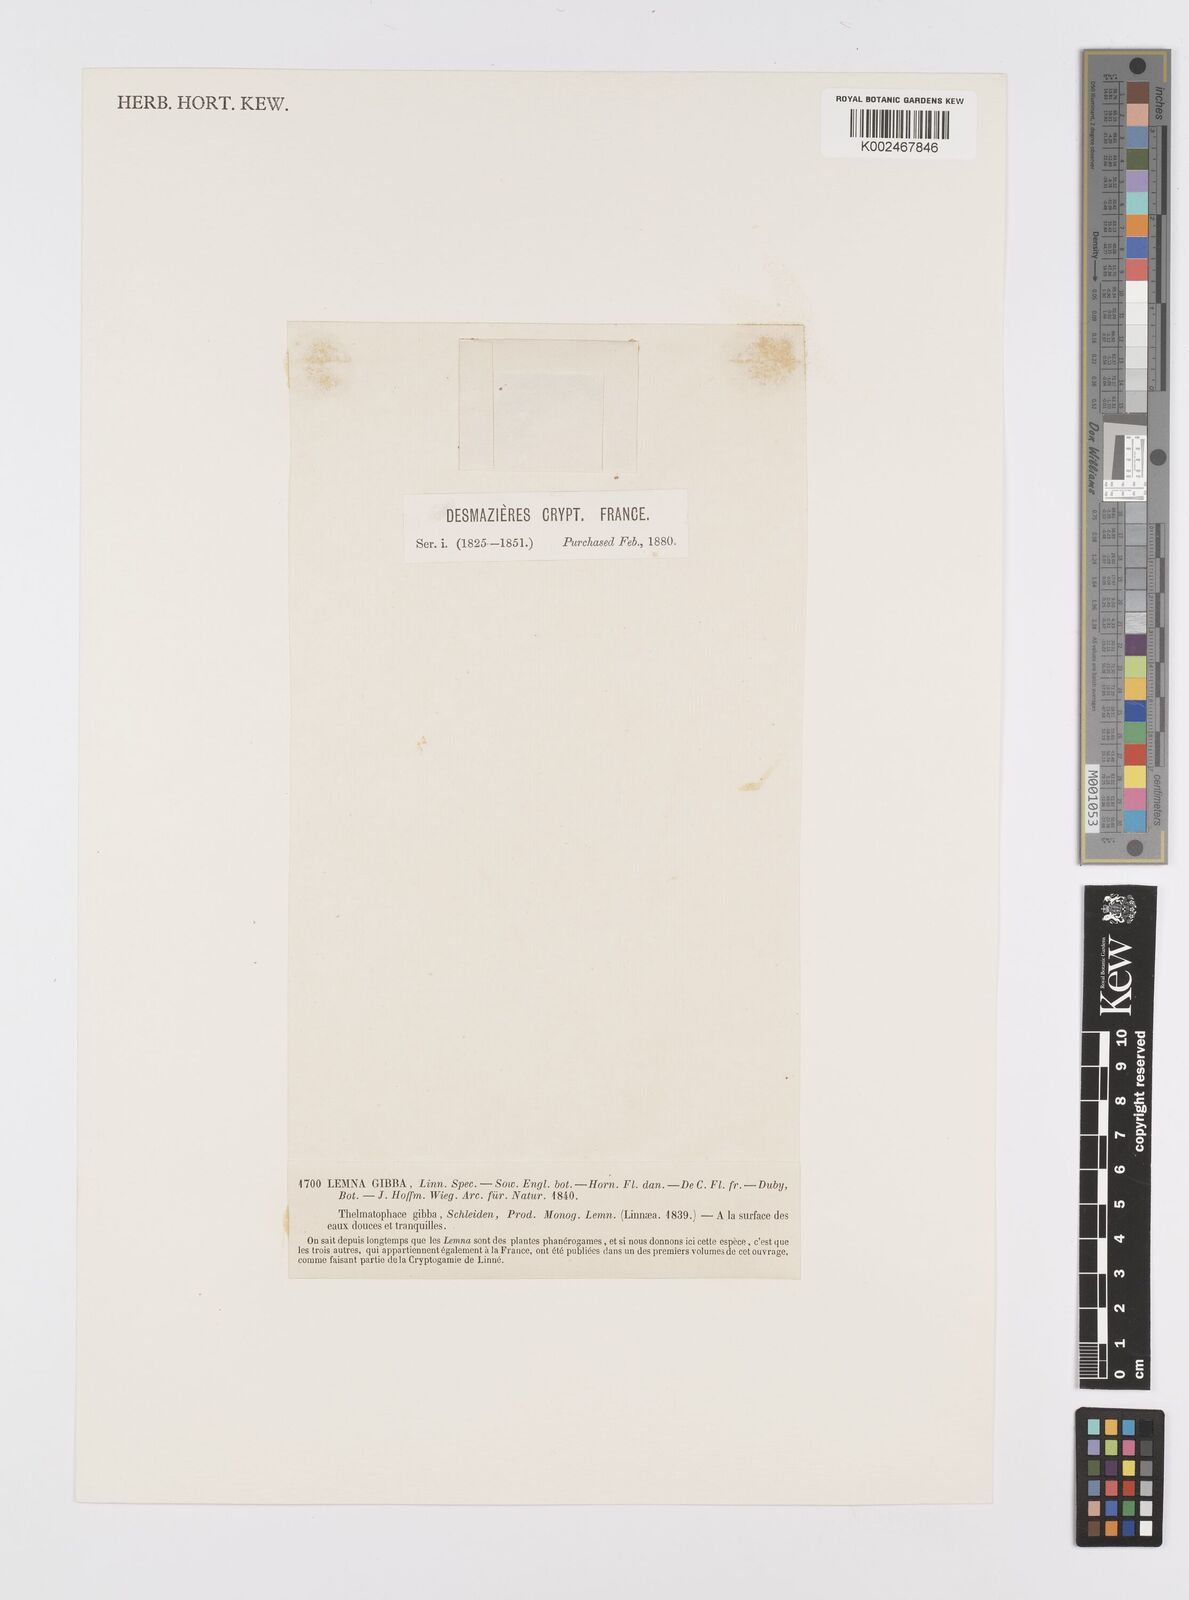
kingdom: Plantae
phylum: Tracheophyta
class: Liliopsida
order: Alismatales
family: Araceae
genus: Lemna
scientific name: Lemna gibba
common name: Fat duckweed
